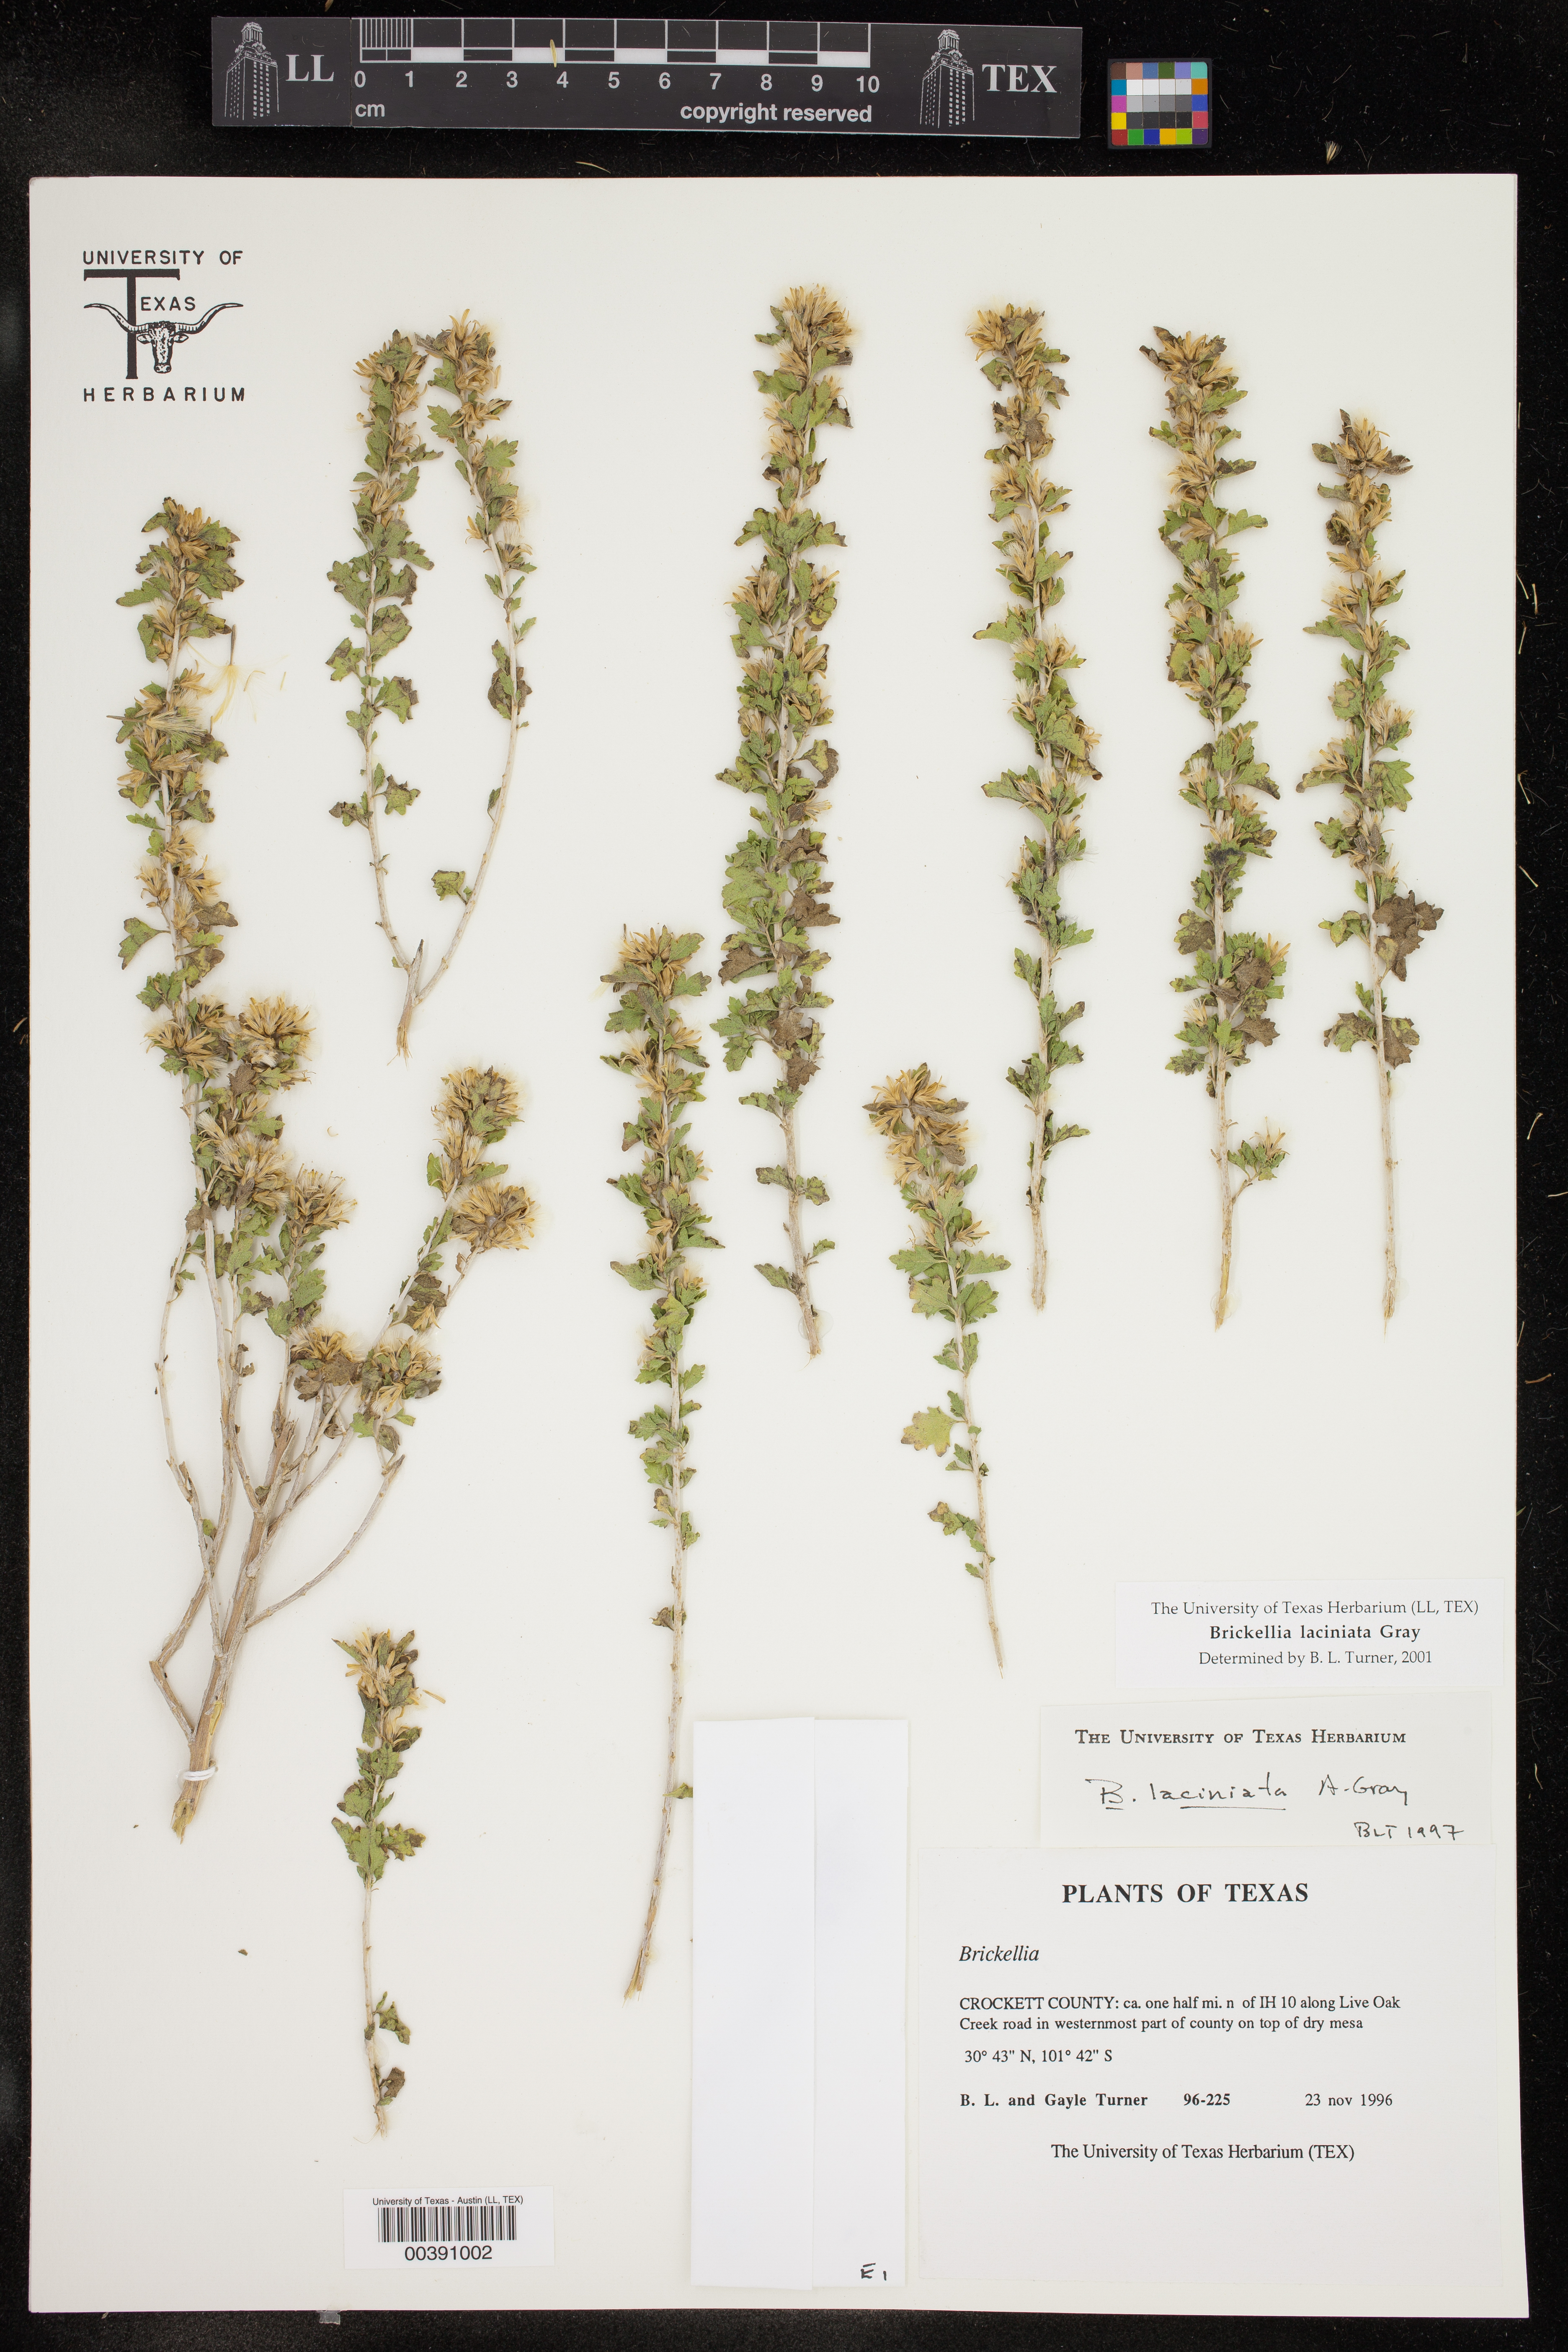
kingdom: Plantae
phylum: Tracheophyta
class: Magnoliopsida
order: Asterales
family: Asteraceae
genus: Brickellia
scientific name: Brickellia laciniata
